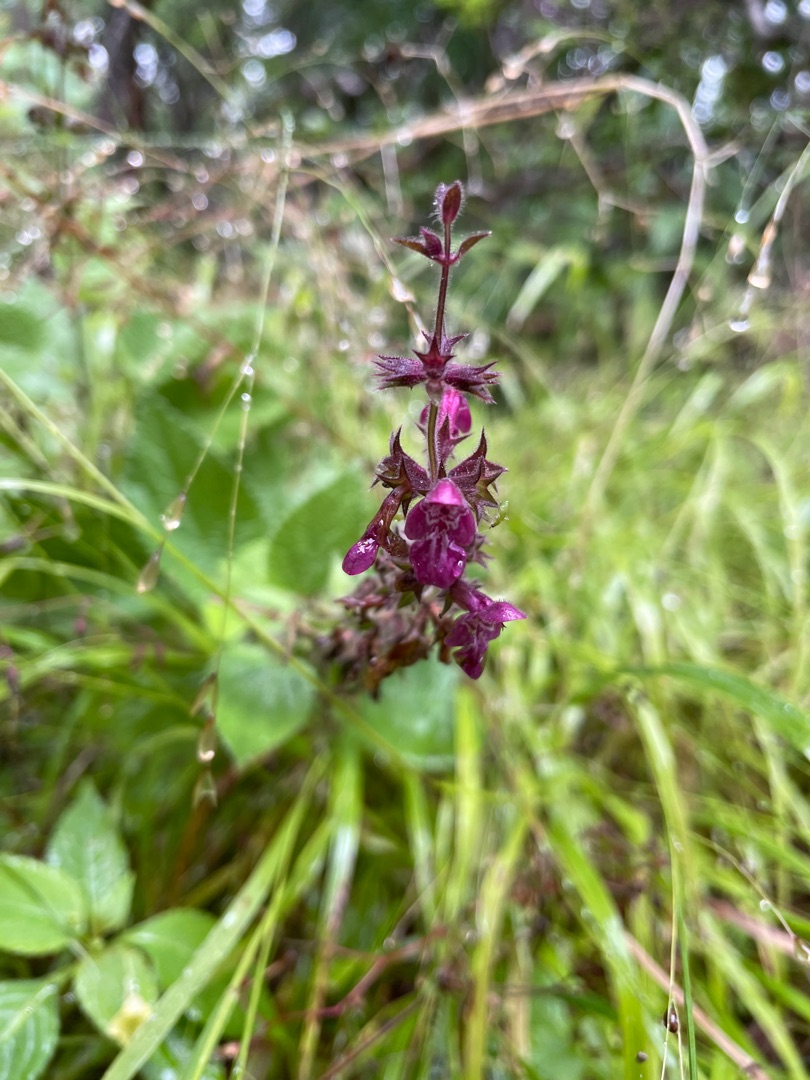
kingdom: Plantae
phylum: Tracheophyta
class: Magnoliopsida
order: Lamiales
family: Lamiaceae
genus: Stachys
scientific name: Stachys sylvatica
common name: Skov-galtetand
